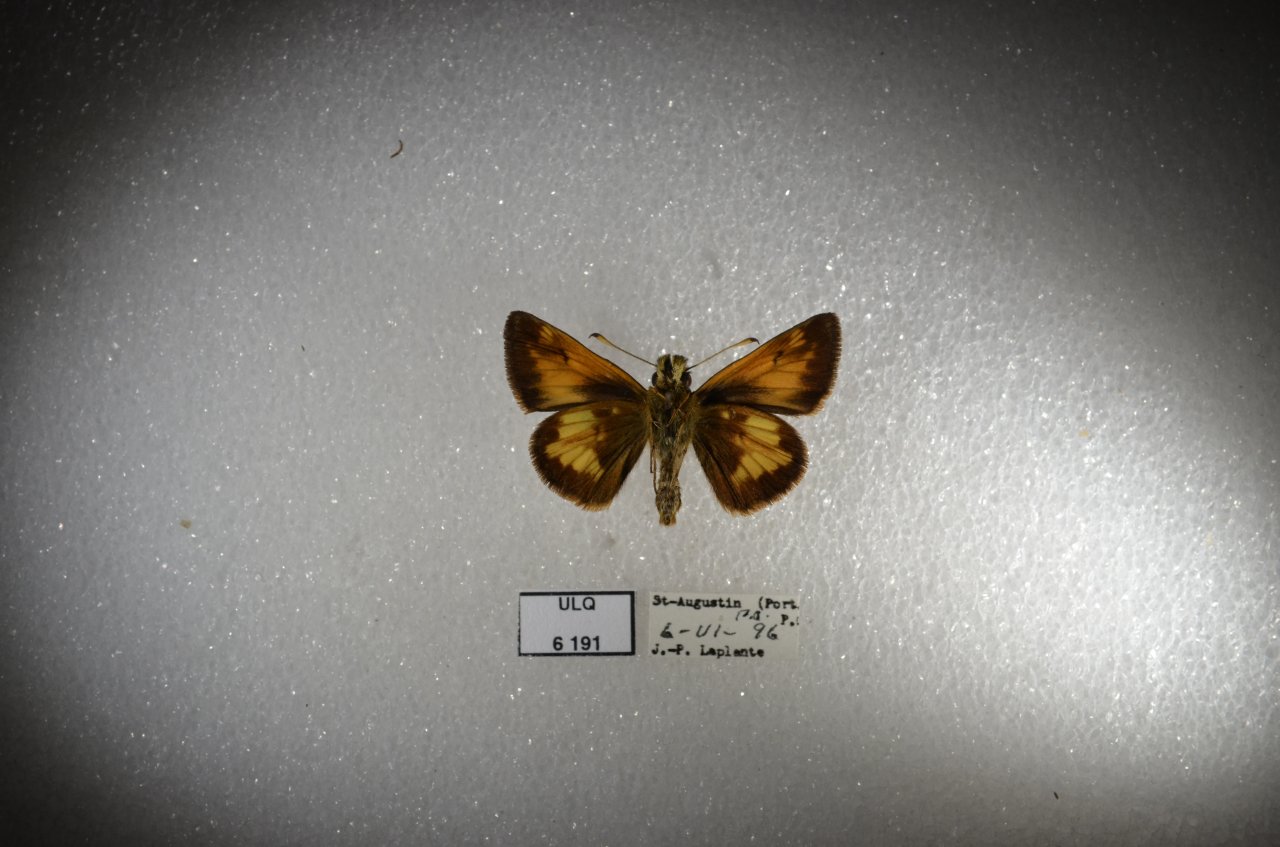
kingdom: Animalia
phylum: Arthropoda
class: Insecta
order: Lepidoptera
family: Hesperiidae
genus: Lon
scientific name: Lon hobomok
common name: Hobomok Skipper
